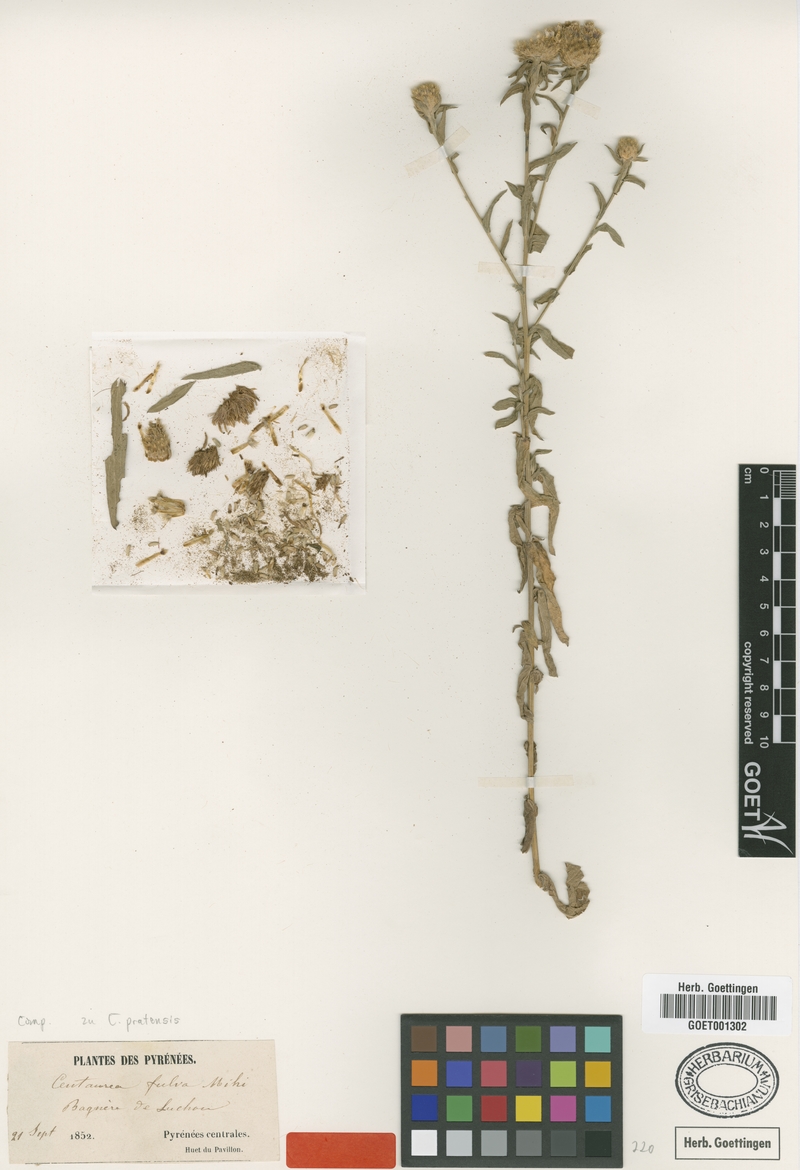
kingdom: Plantae
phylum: Tracheophyta
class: Magnoliopsida
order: Asterales
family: Asteraceae
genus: Centaurea
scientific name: Centaurea thuillieri
